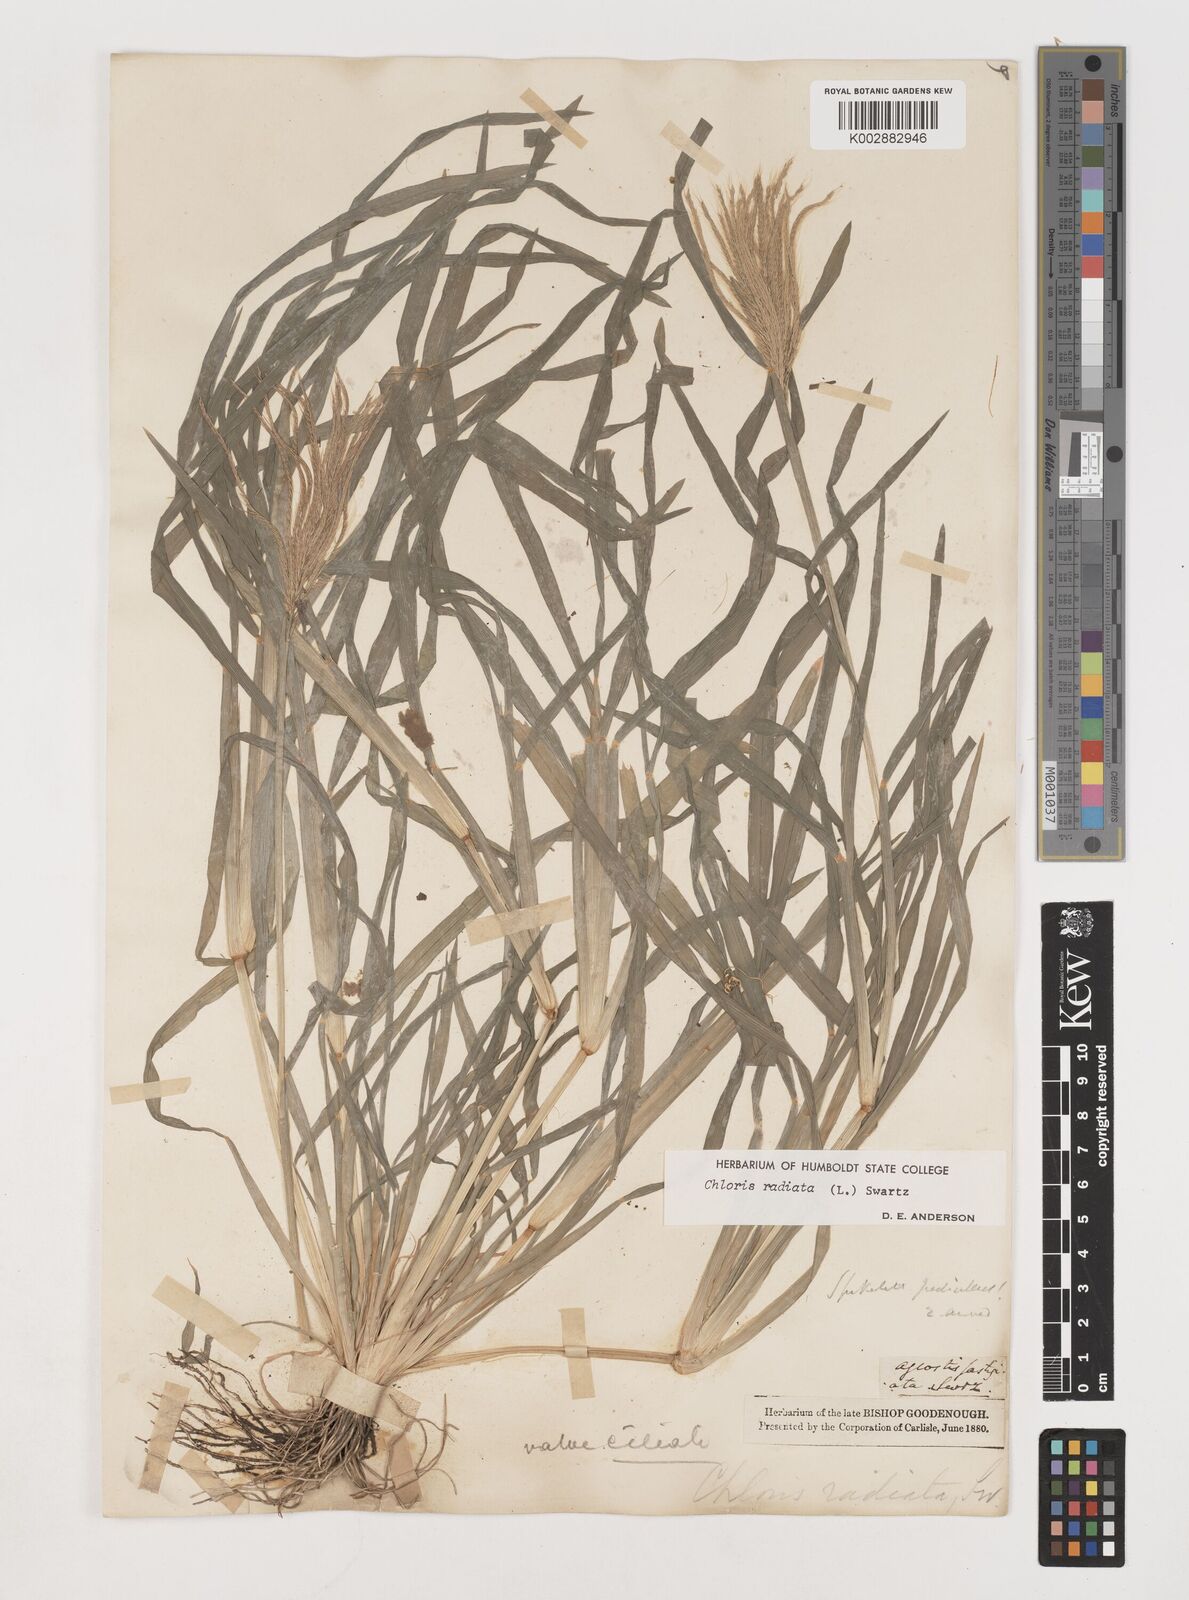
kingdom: Plantae
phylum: Tracheophyta
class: Liliopsida
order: Poales
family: Poaceae
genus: Chloris
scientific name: Chloris radiata
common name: Radiate fingergrass
